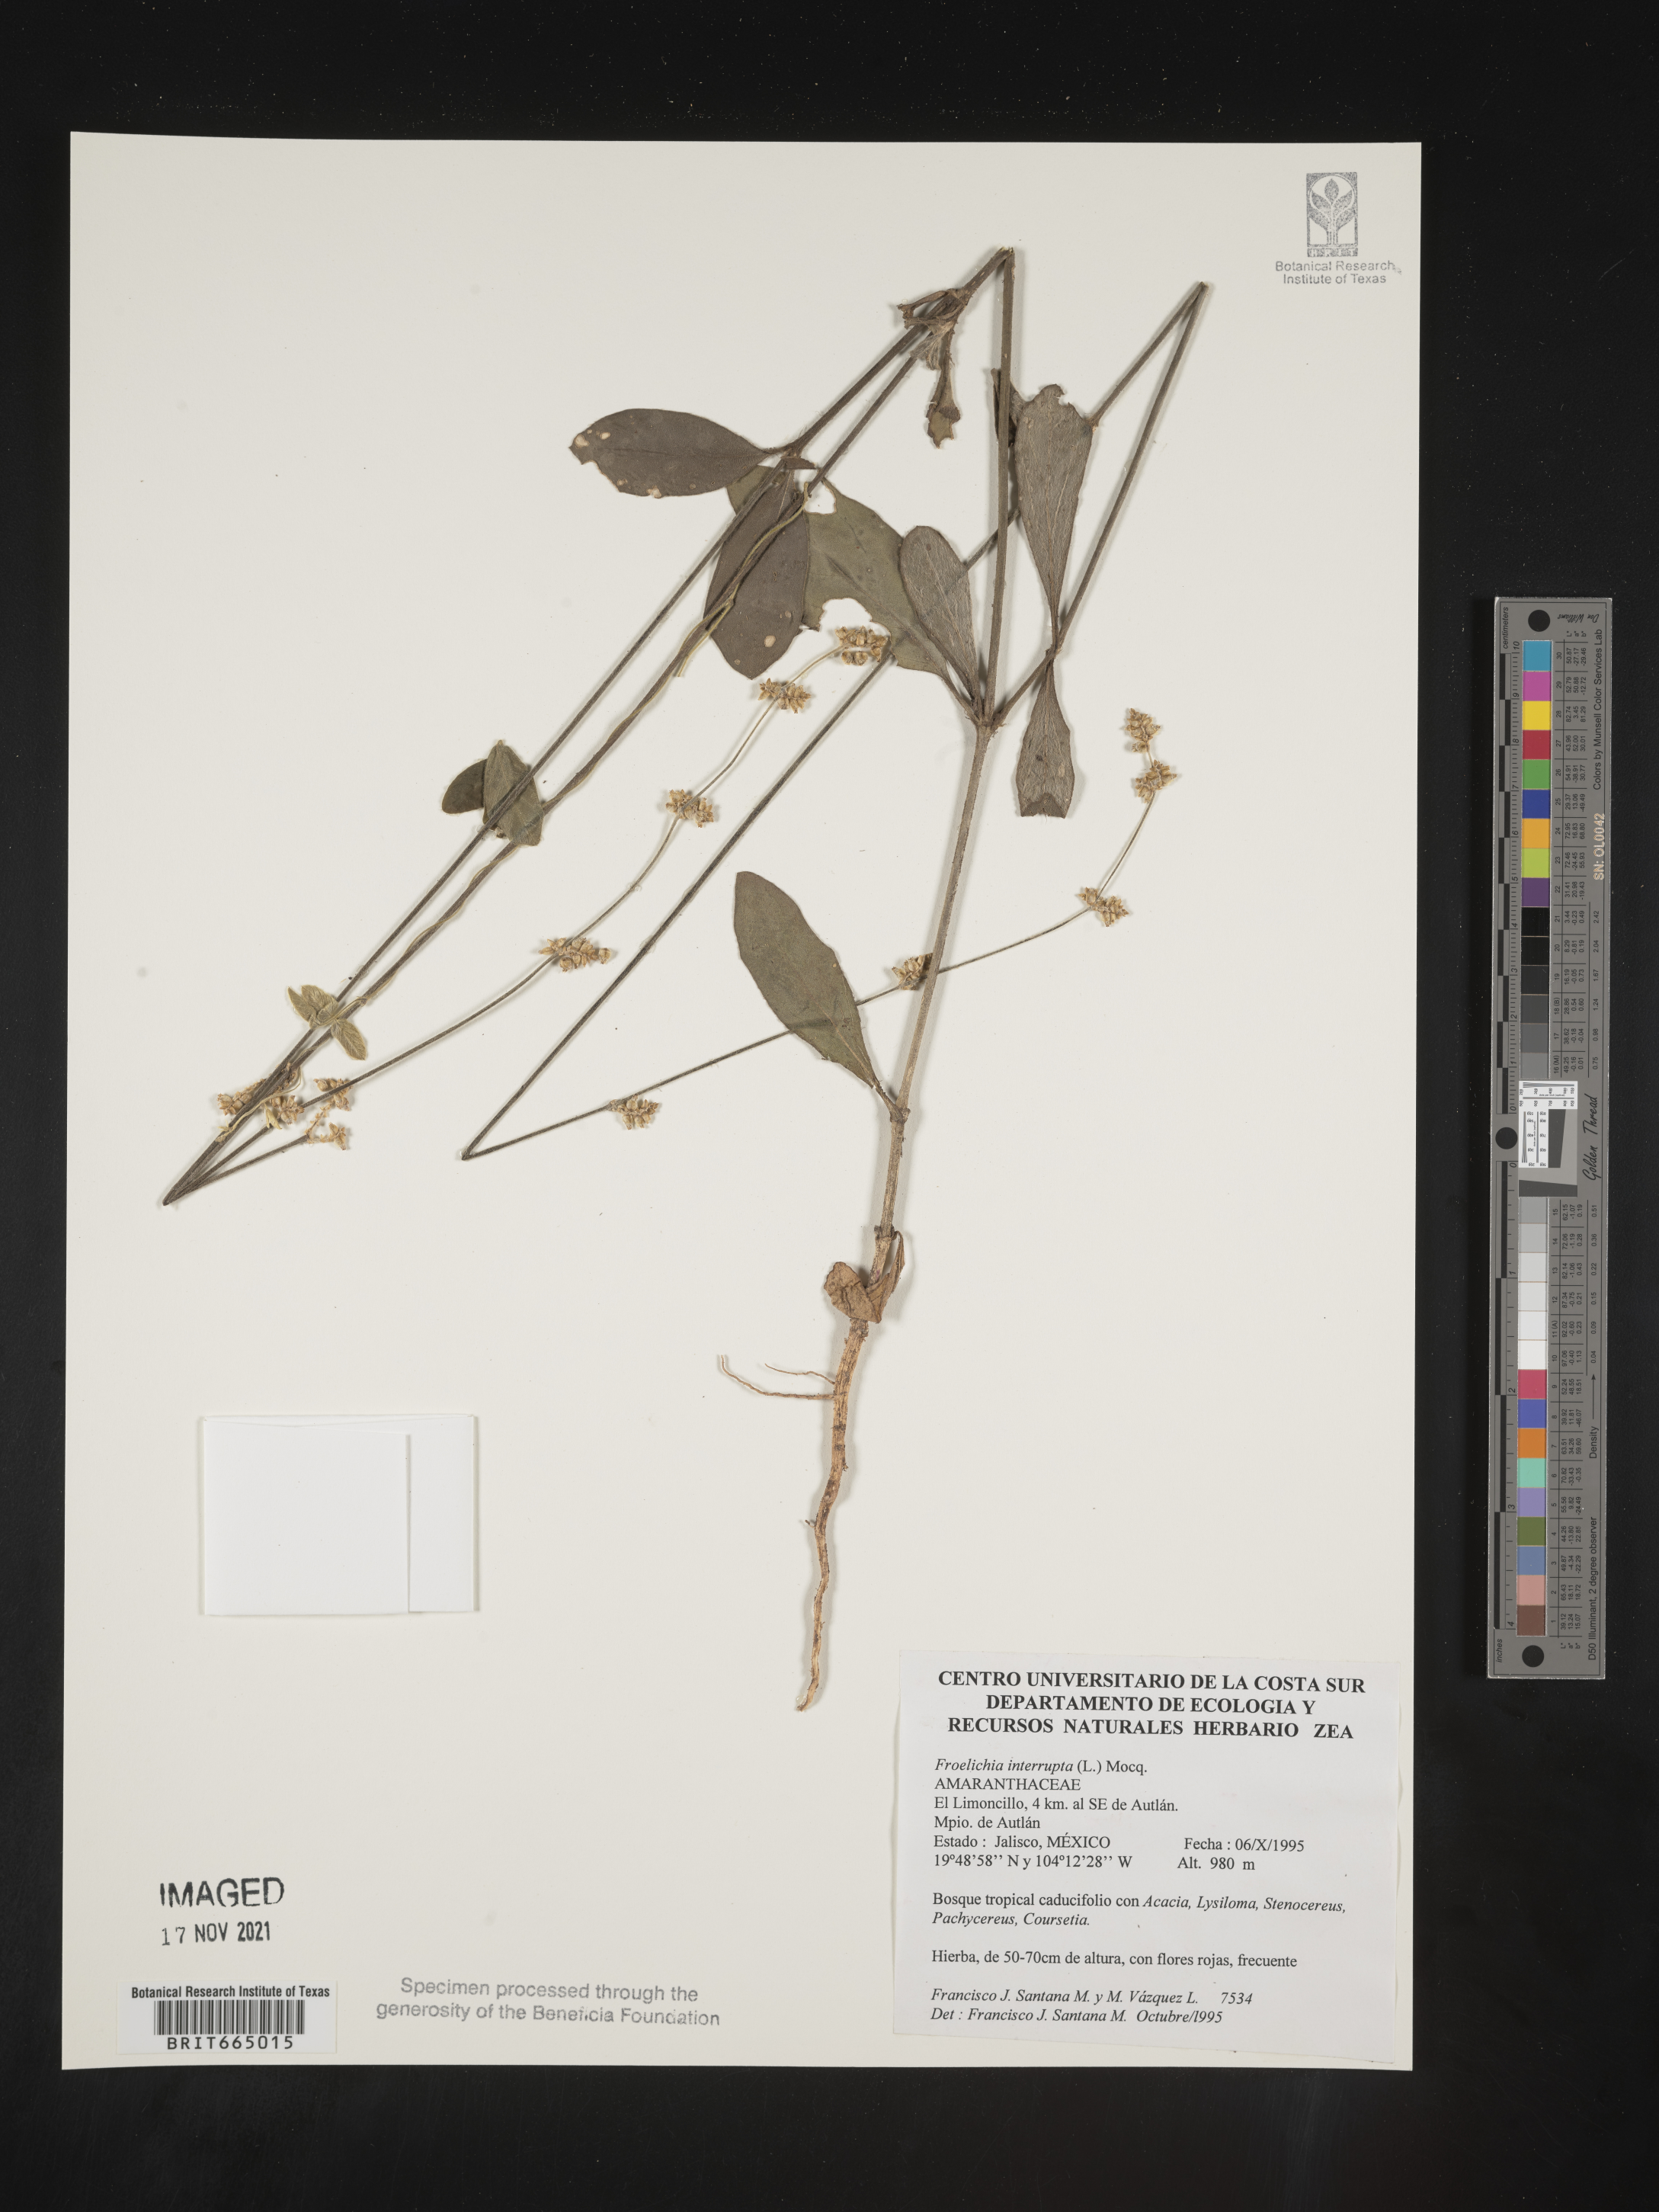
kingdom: Plantae
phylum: Tracheophyta
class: Magnoliopsida
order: Caryophyllales
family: Amaranthaceae
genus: Froelichia
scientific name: Froelichia
